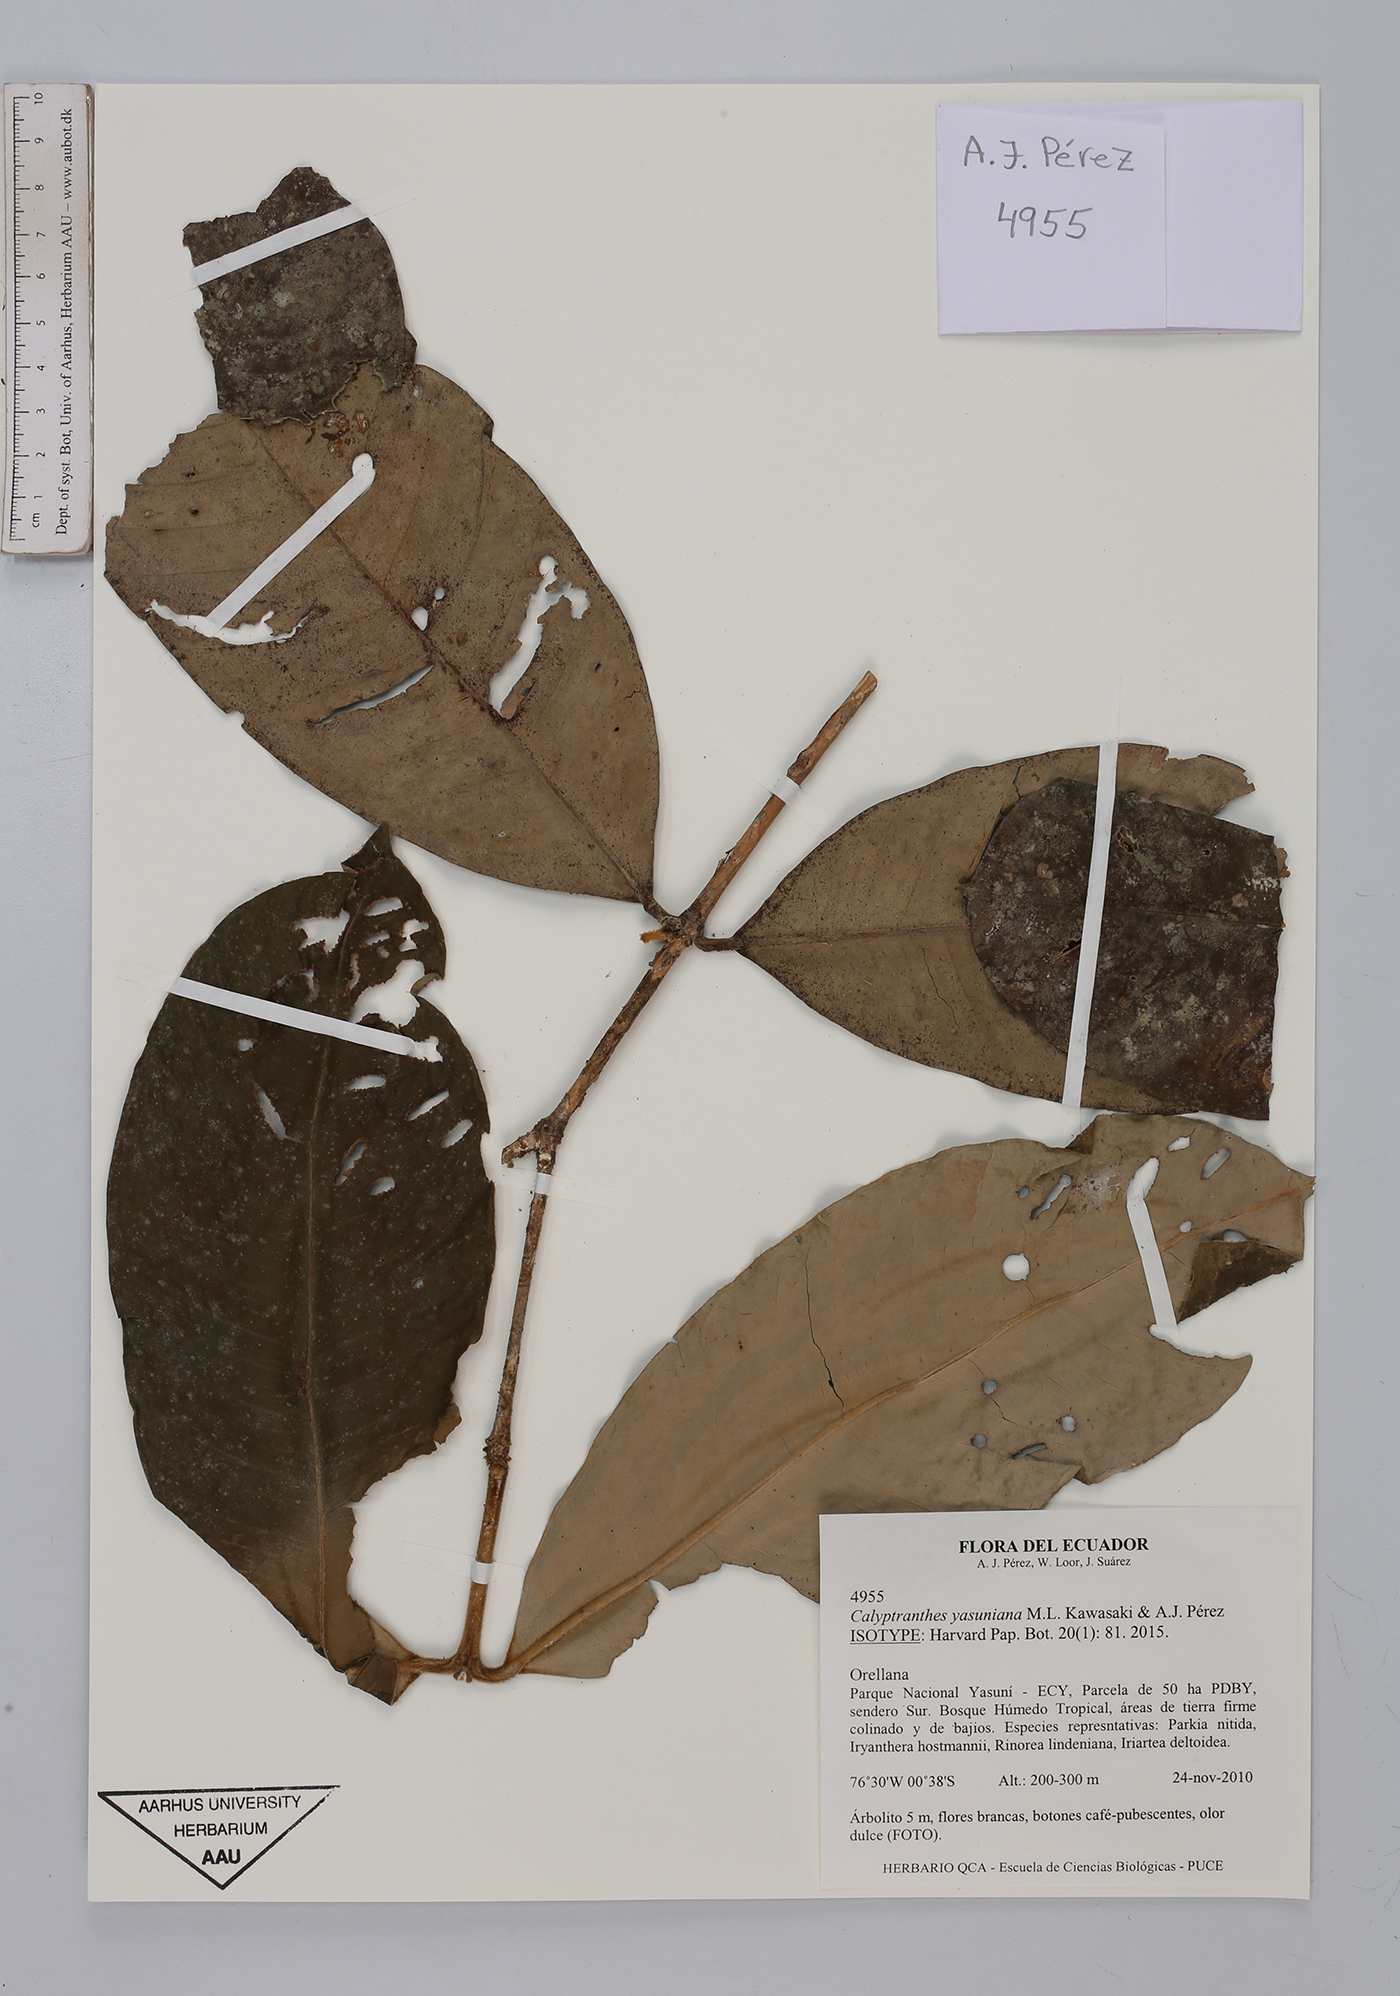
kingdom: Plantae
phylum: Tracheophyta
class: Magnoliopsida
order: Myrtales
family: Myrtaceae
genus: Myrcia
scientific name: Myrcia yasuniana
